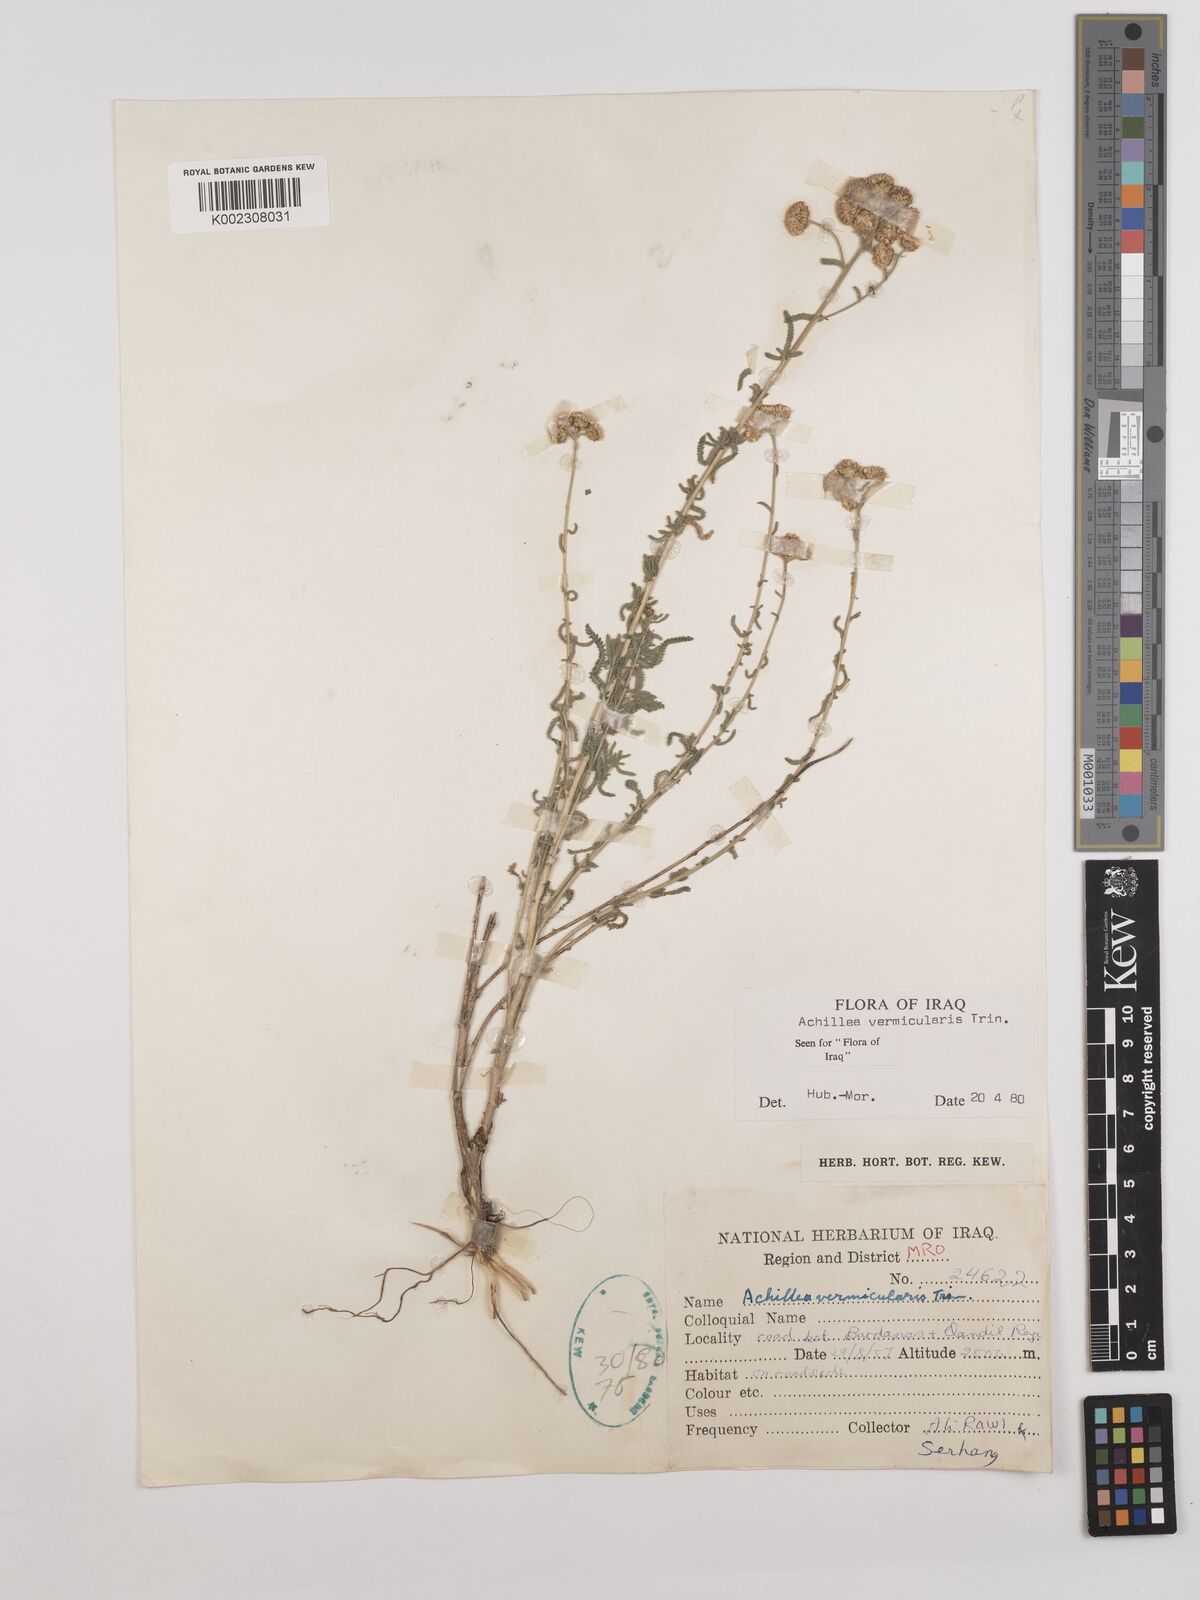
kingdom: Plantae
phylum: Tracheophyta
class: Magnoliopsida
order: Asterales
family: Asteraceae
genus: Achillea
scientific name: Achillea vermicularis
